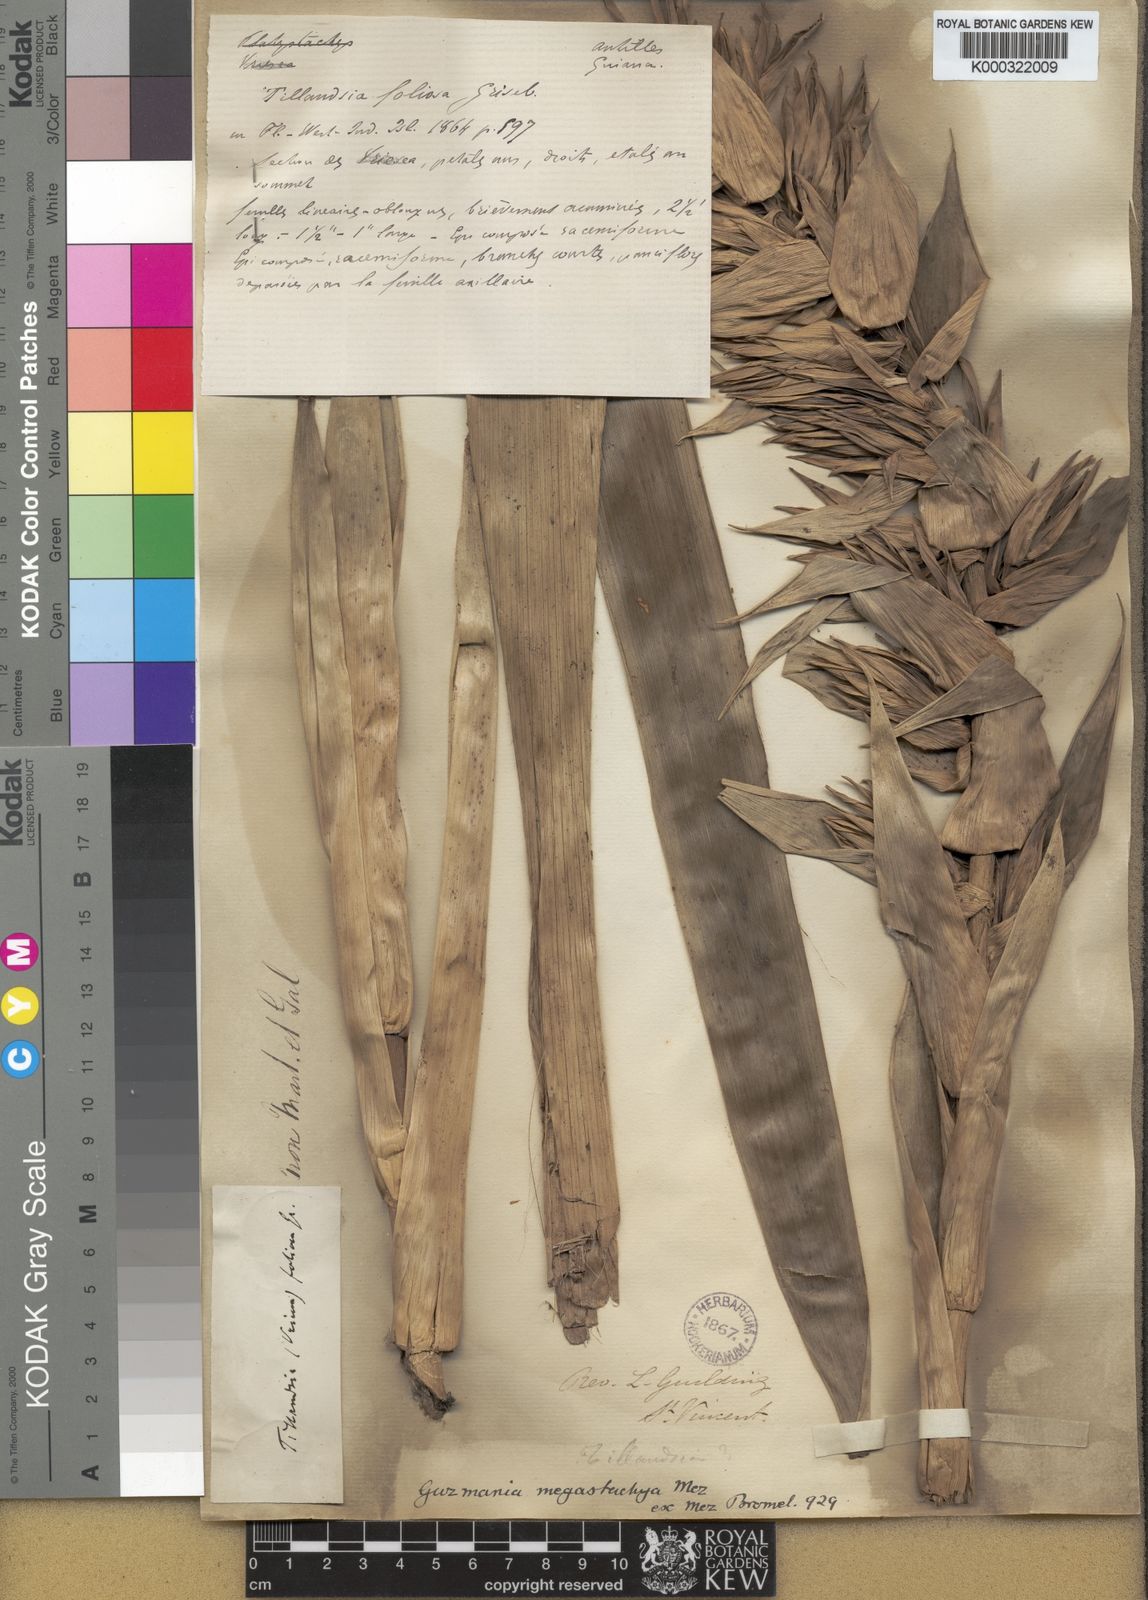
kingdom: Plantae
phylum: Tracheophyta
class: Liliopsida
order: Poales
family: Bromeliaceae
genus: Guzmania
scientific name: Guzmania megastachya
